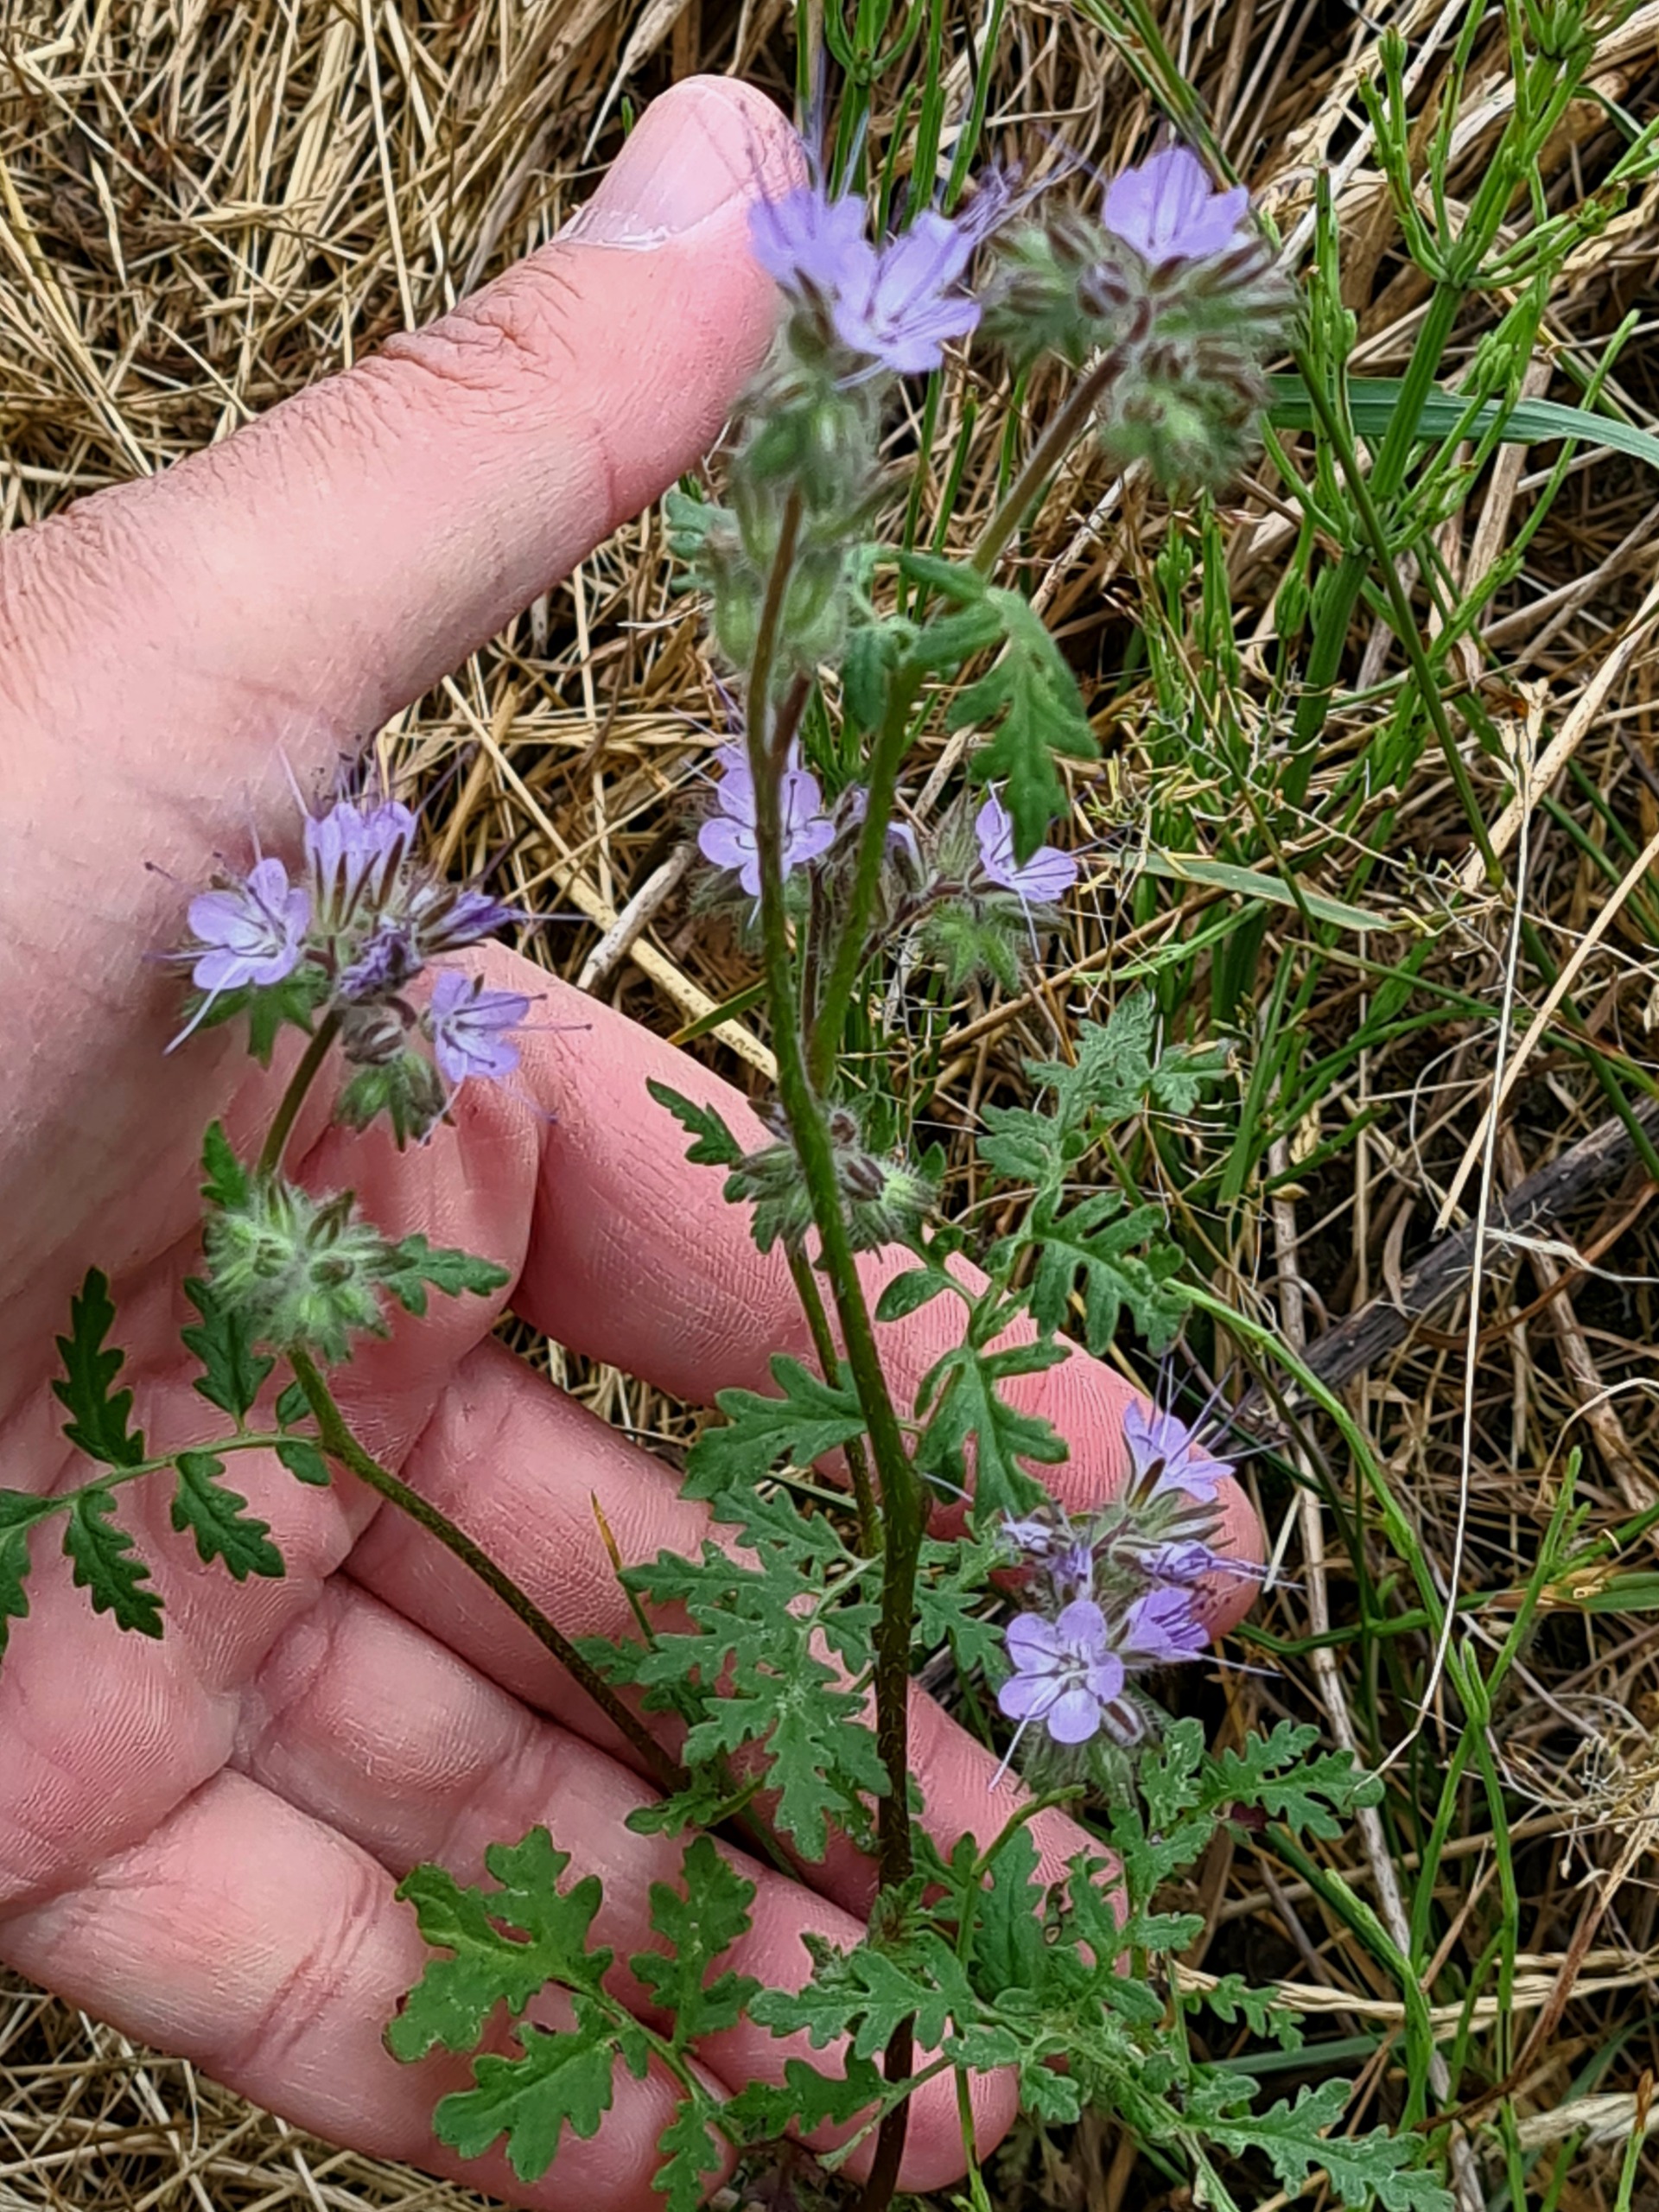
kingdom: Plantae
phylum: Tracheophyta
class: Magnoliopsida
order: Boraginales
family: Hydrophyllaceae
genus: Phacelia
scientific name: Phacelia tanacetifolia
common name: Honningurt
